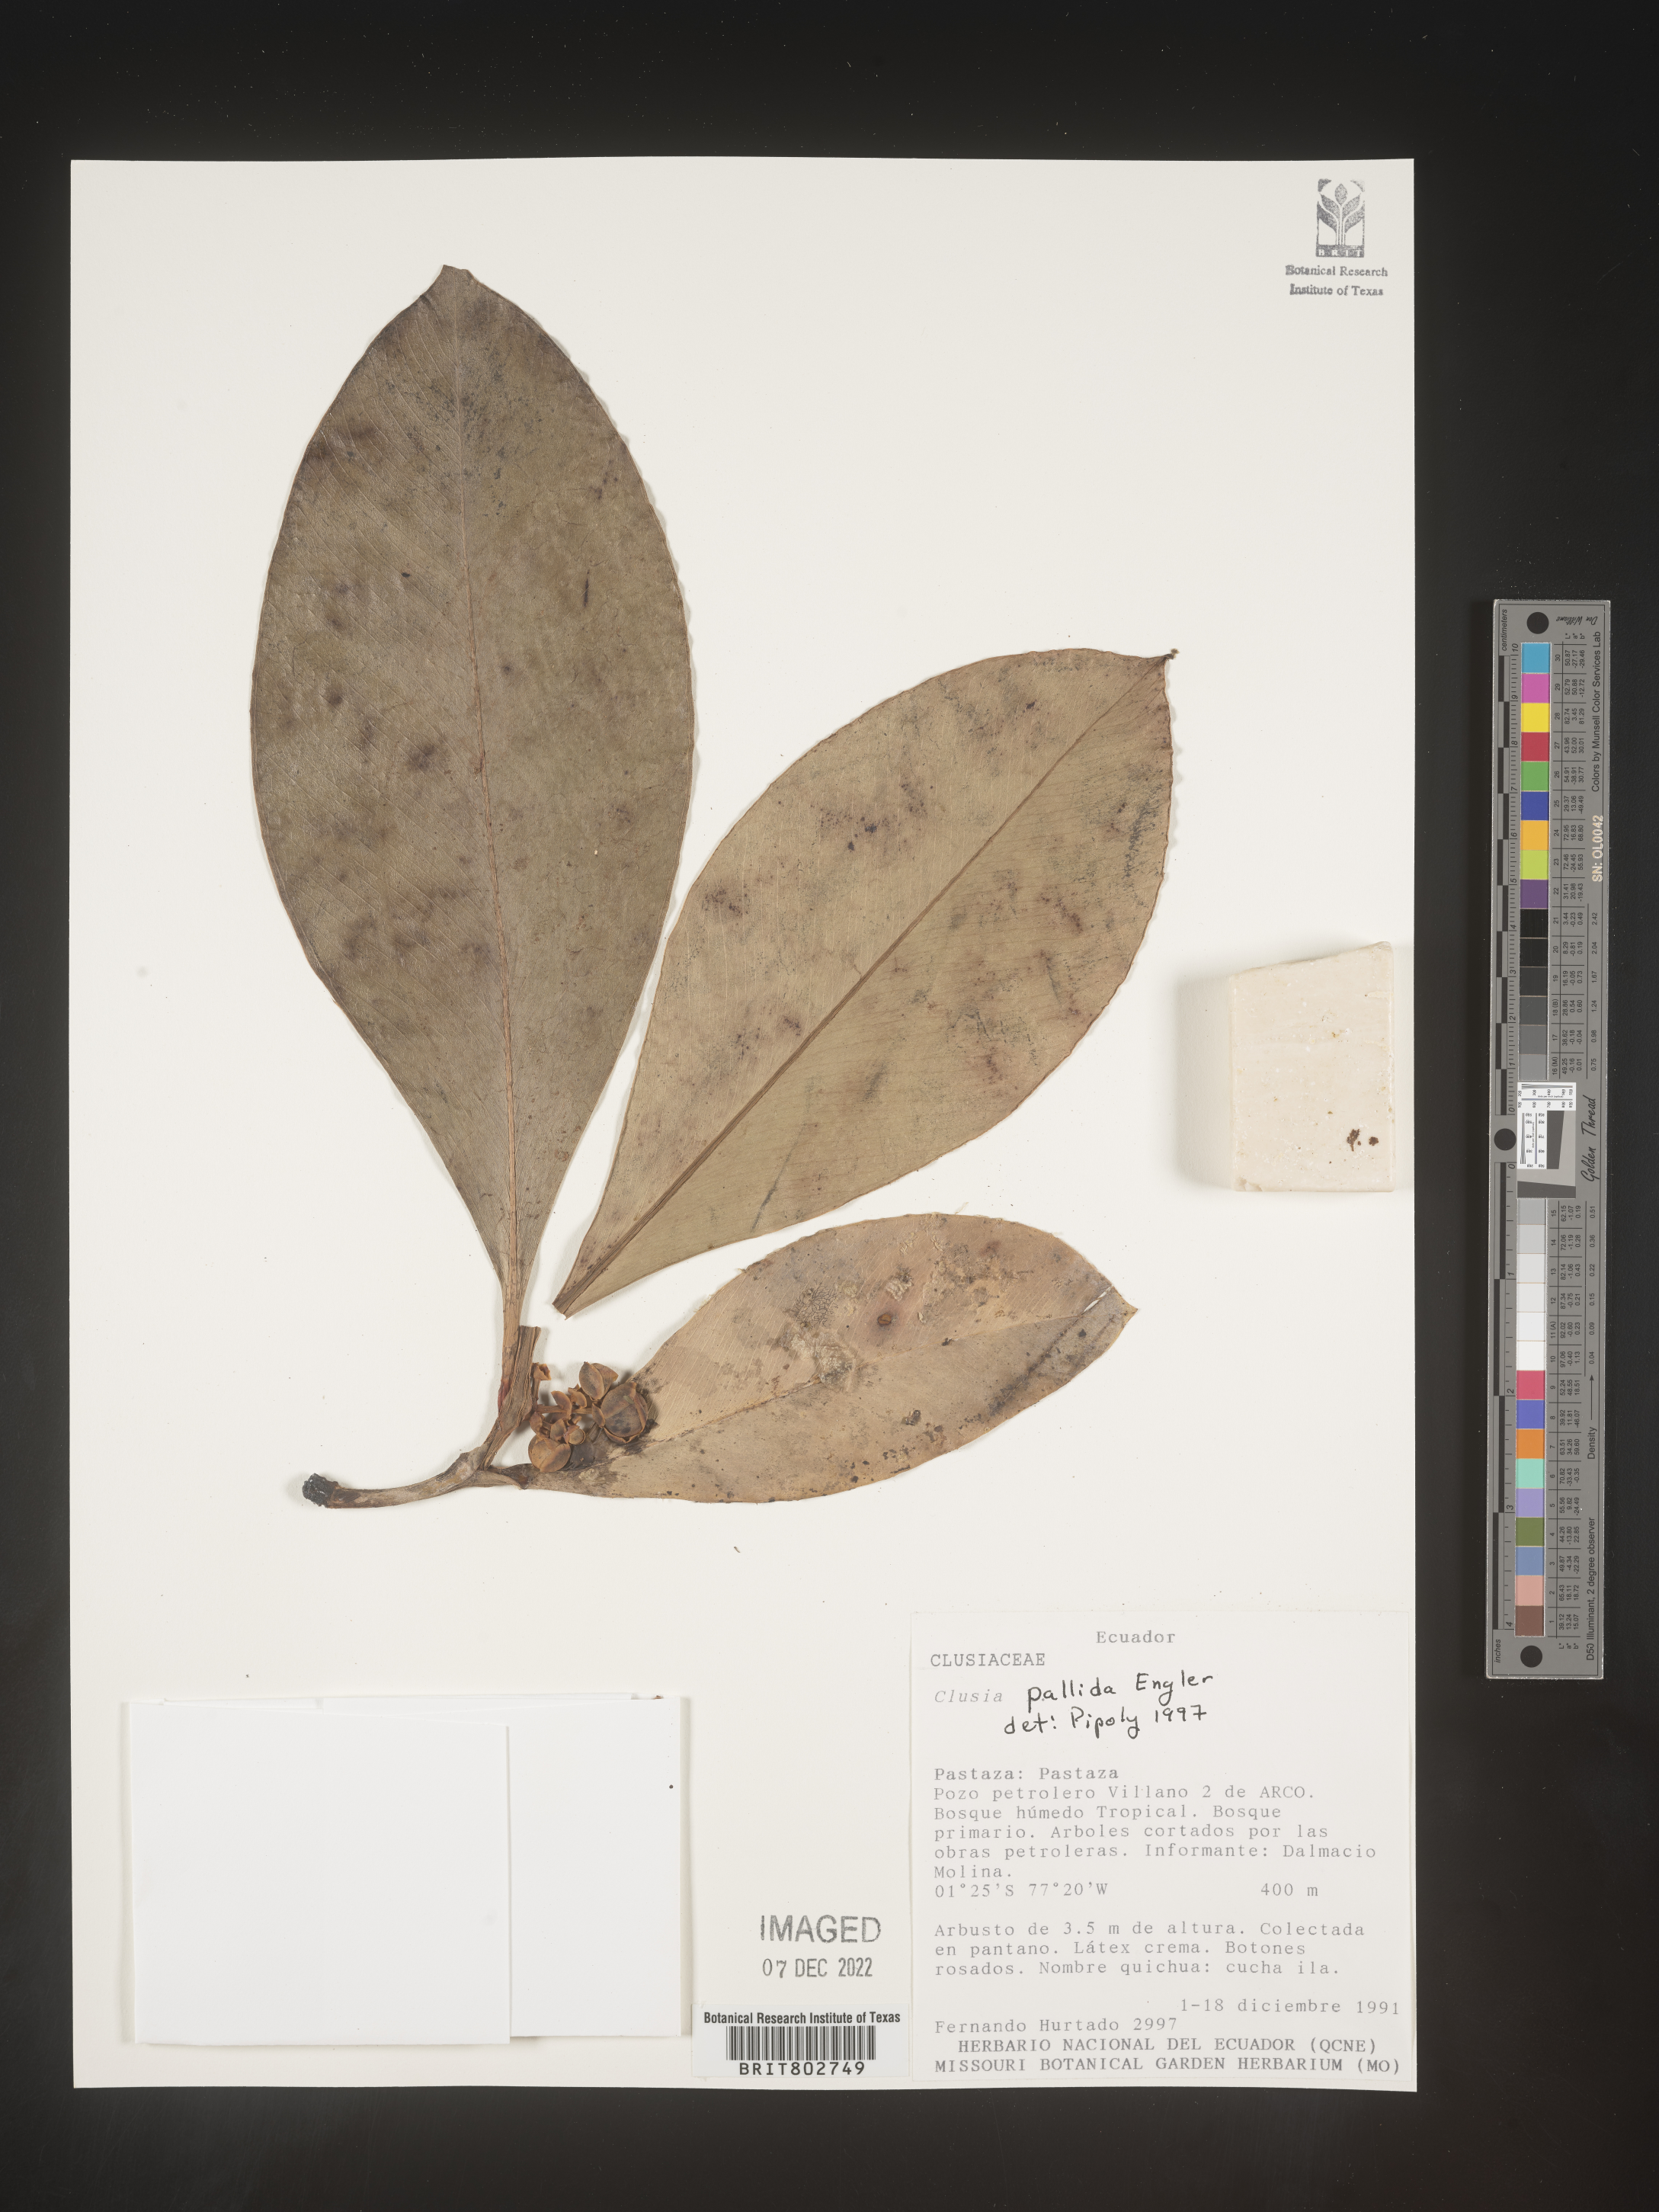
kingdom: Plantae
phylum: Tracheophyta
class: Magnoliopsida
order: Malpighiales
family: Clusiaceae
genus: Clusia
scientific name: Clusia pallida
